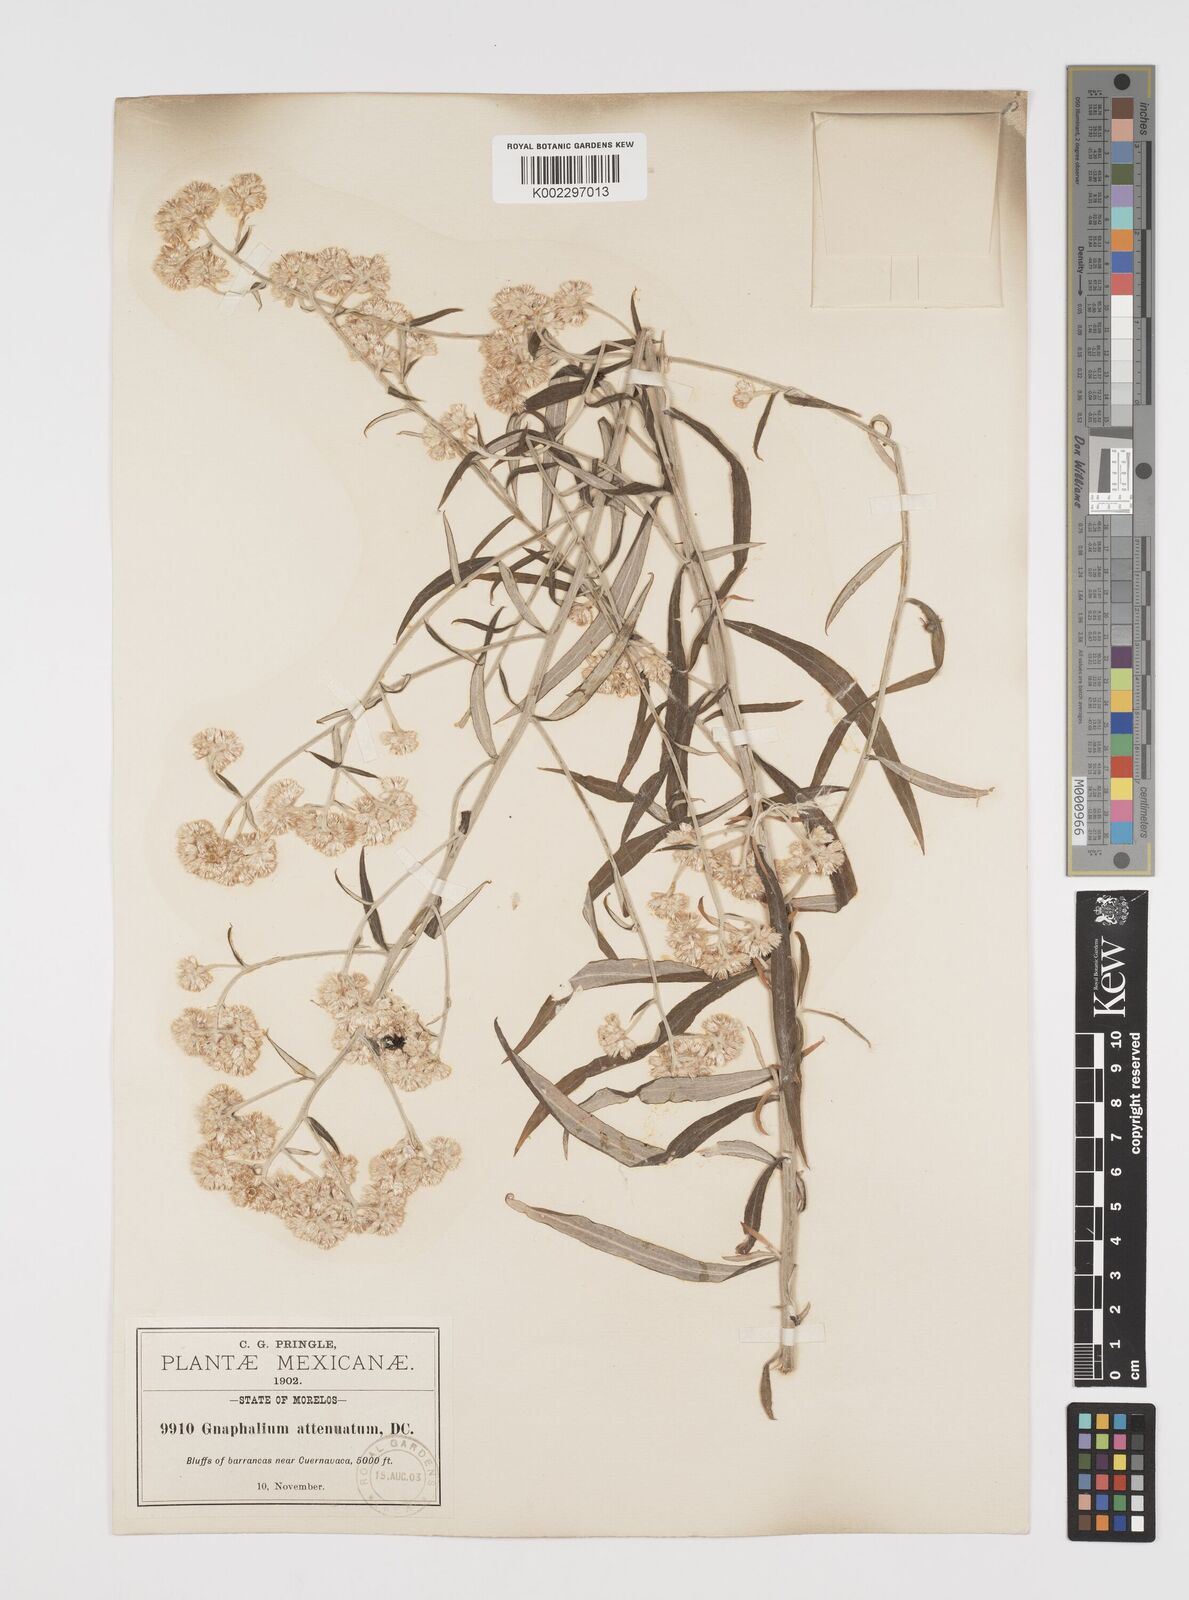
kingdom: Plantae
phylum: Tracheophyta
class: Magnoliopsida
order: Asterales
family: Asteraceae
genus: Pseudognaphalium
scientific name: Pseudognaphalium attenuatum
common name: Tapered cudweed
